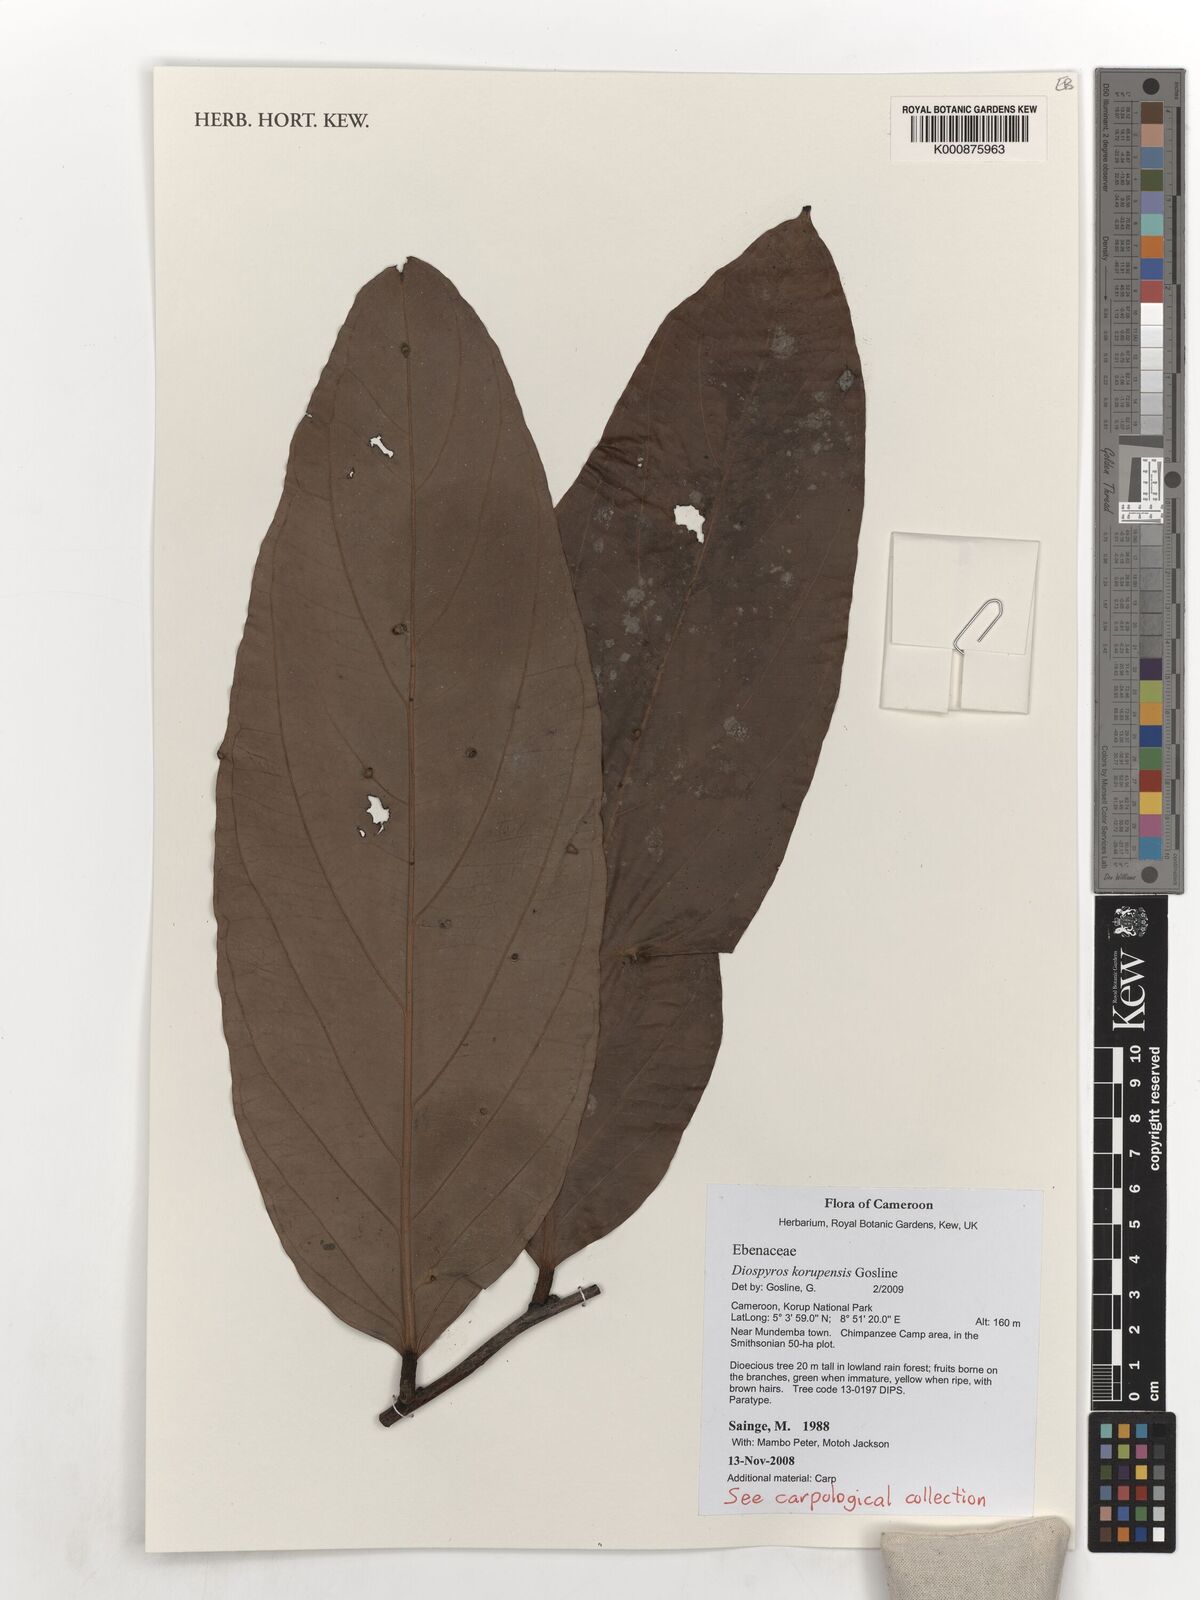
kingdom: Plantae
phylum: Tracheophyta
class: Magnoliopsida
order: Ericales
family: Ebenaceae
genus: Diospyros
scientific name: Diospyros korupensis
